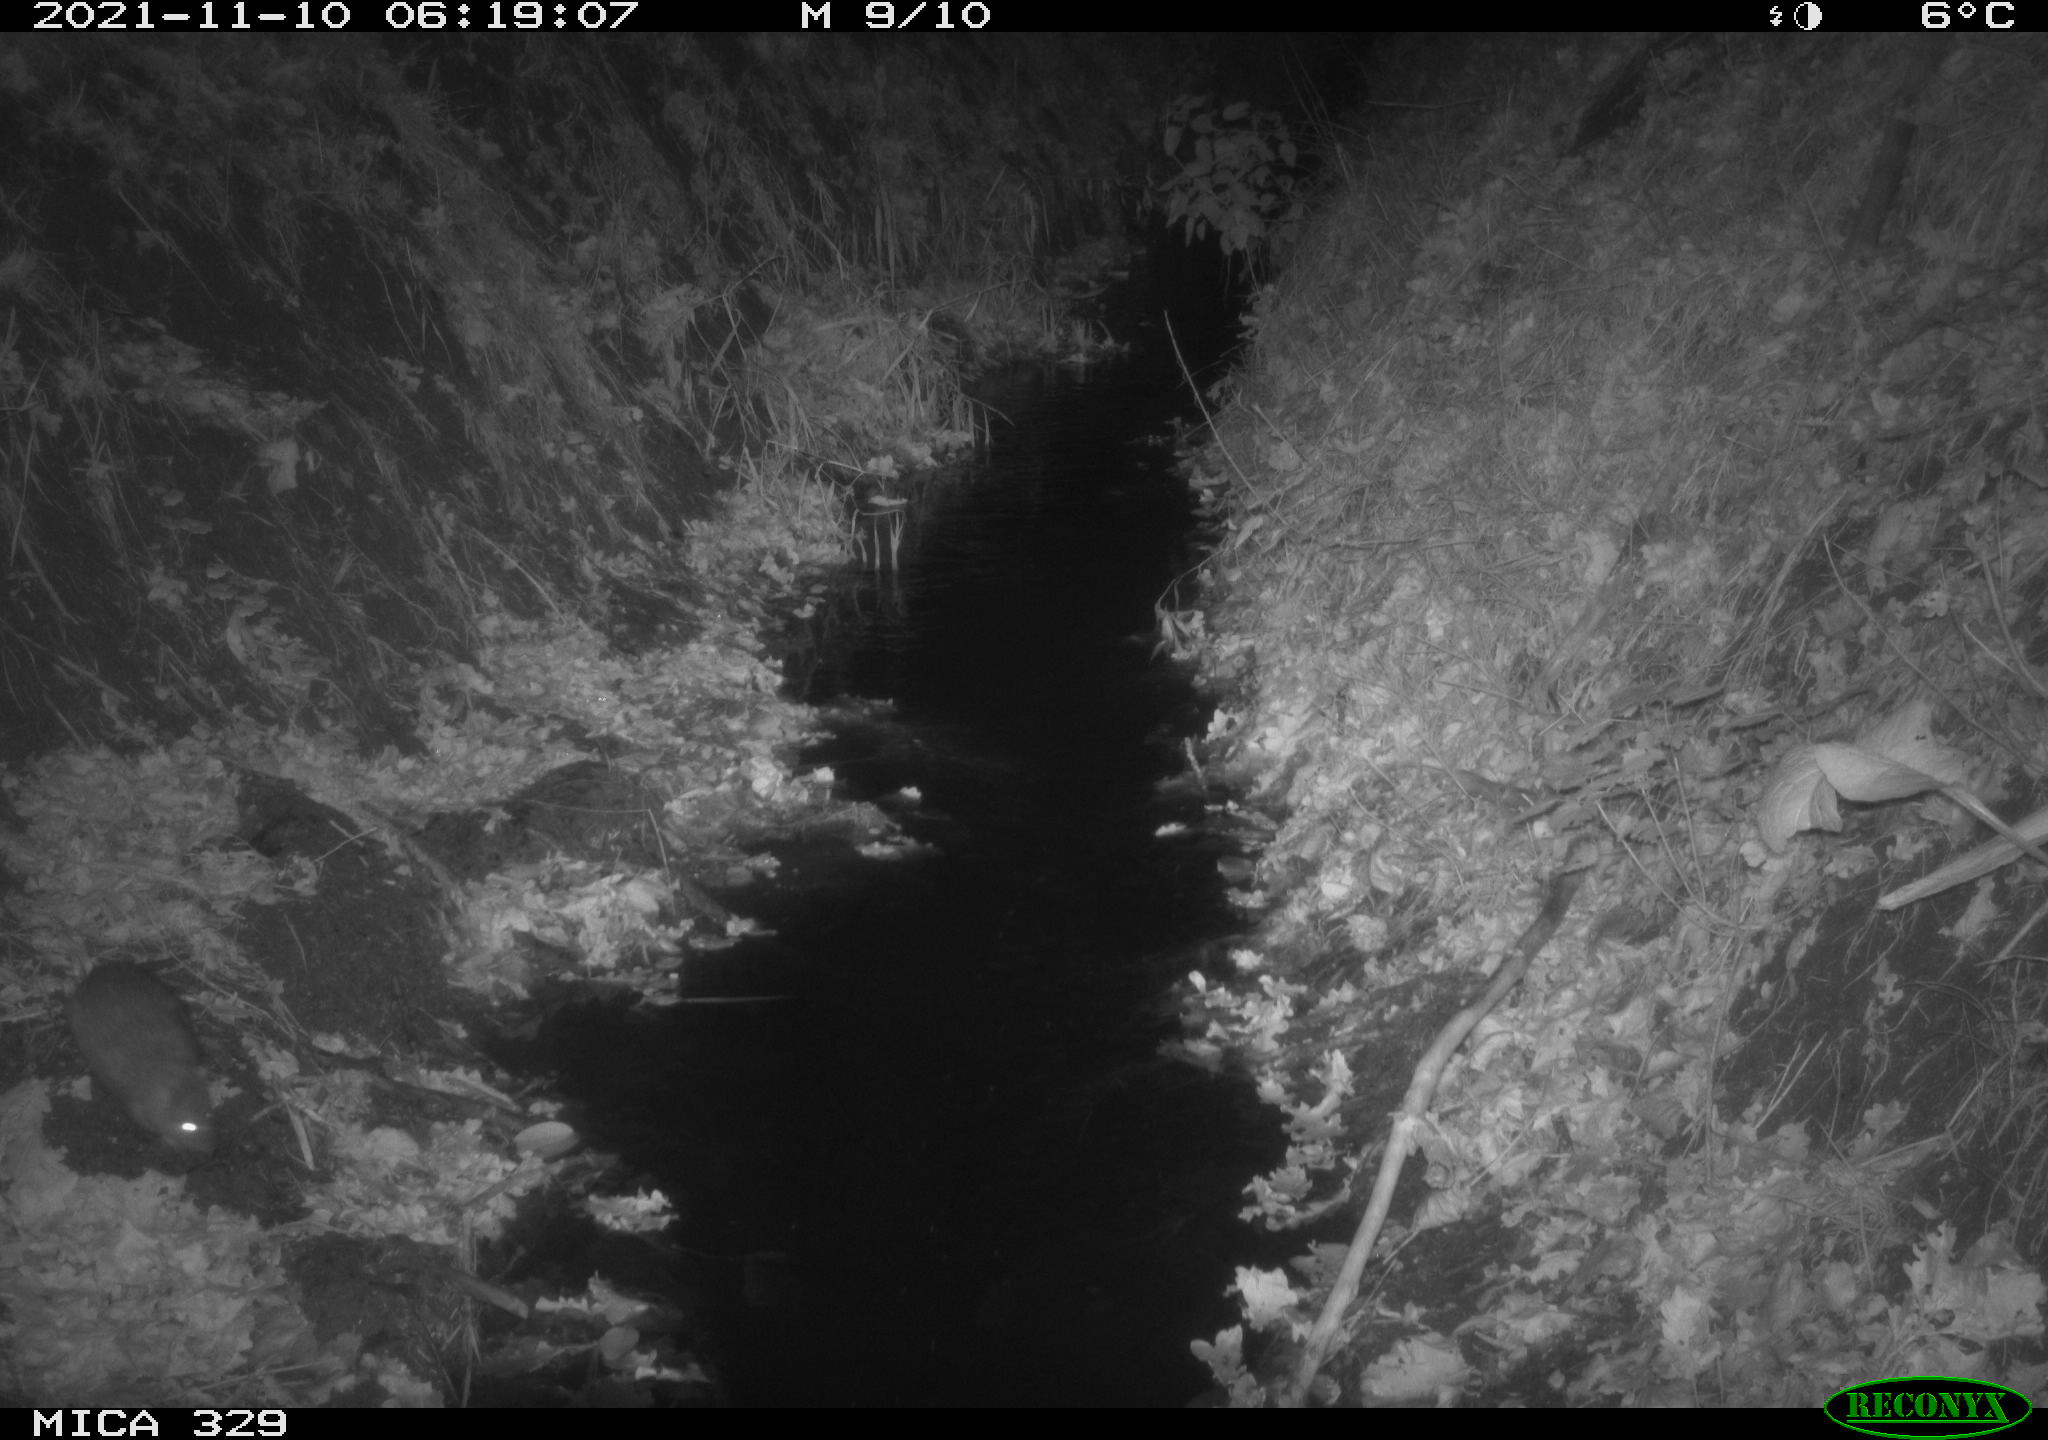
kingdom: Animalia
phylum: Chordata
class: Mammalia
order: Rodentia
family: Muridae
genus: Rattus
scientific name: Rattus norvegicus
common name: Brown rat
